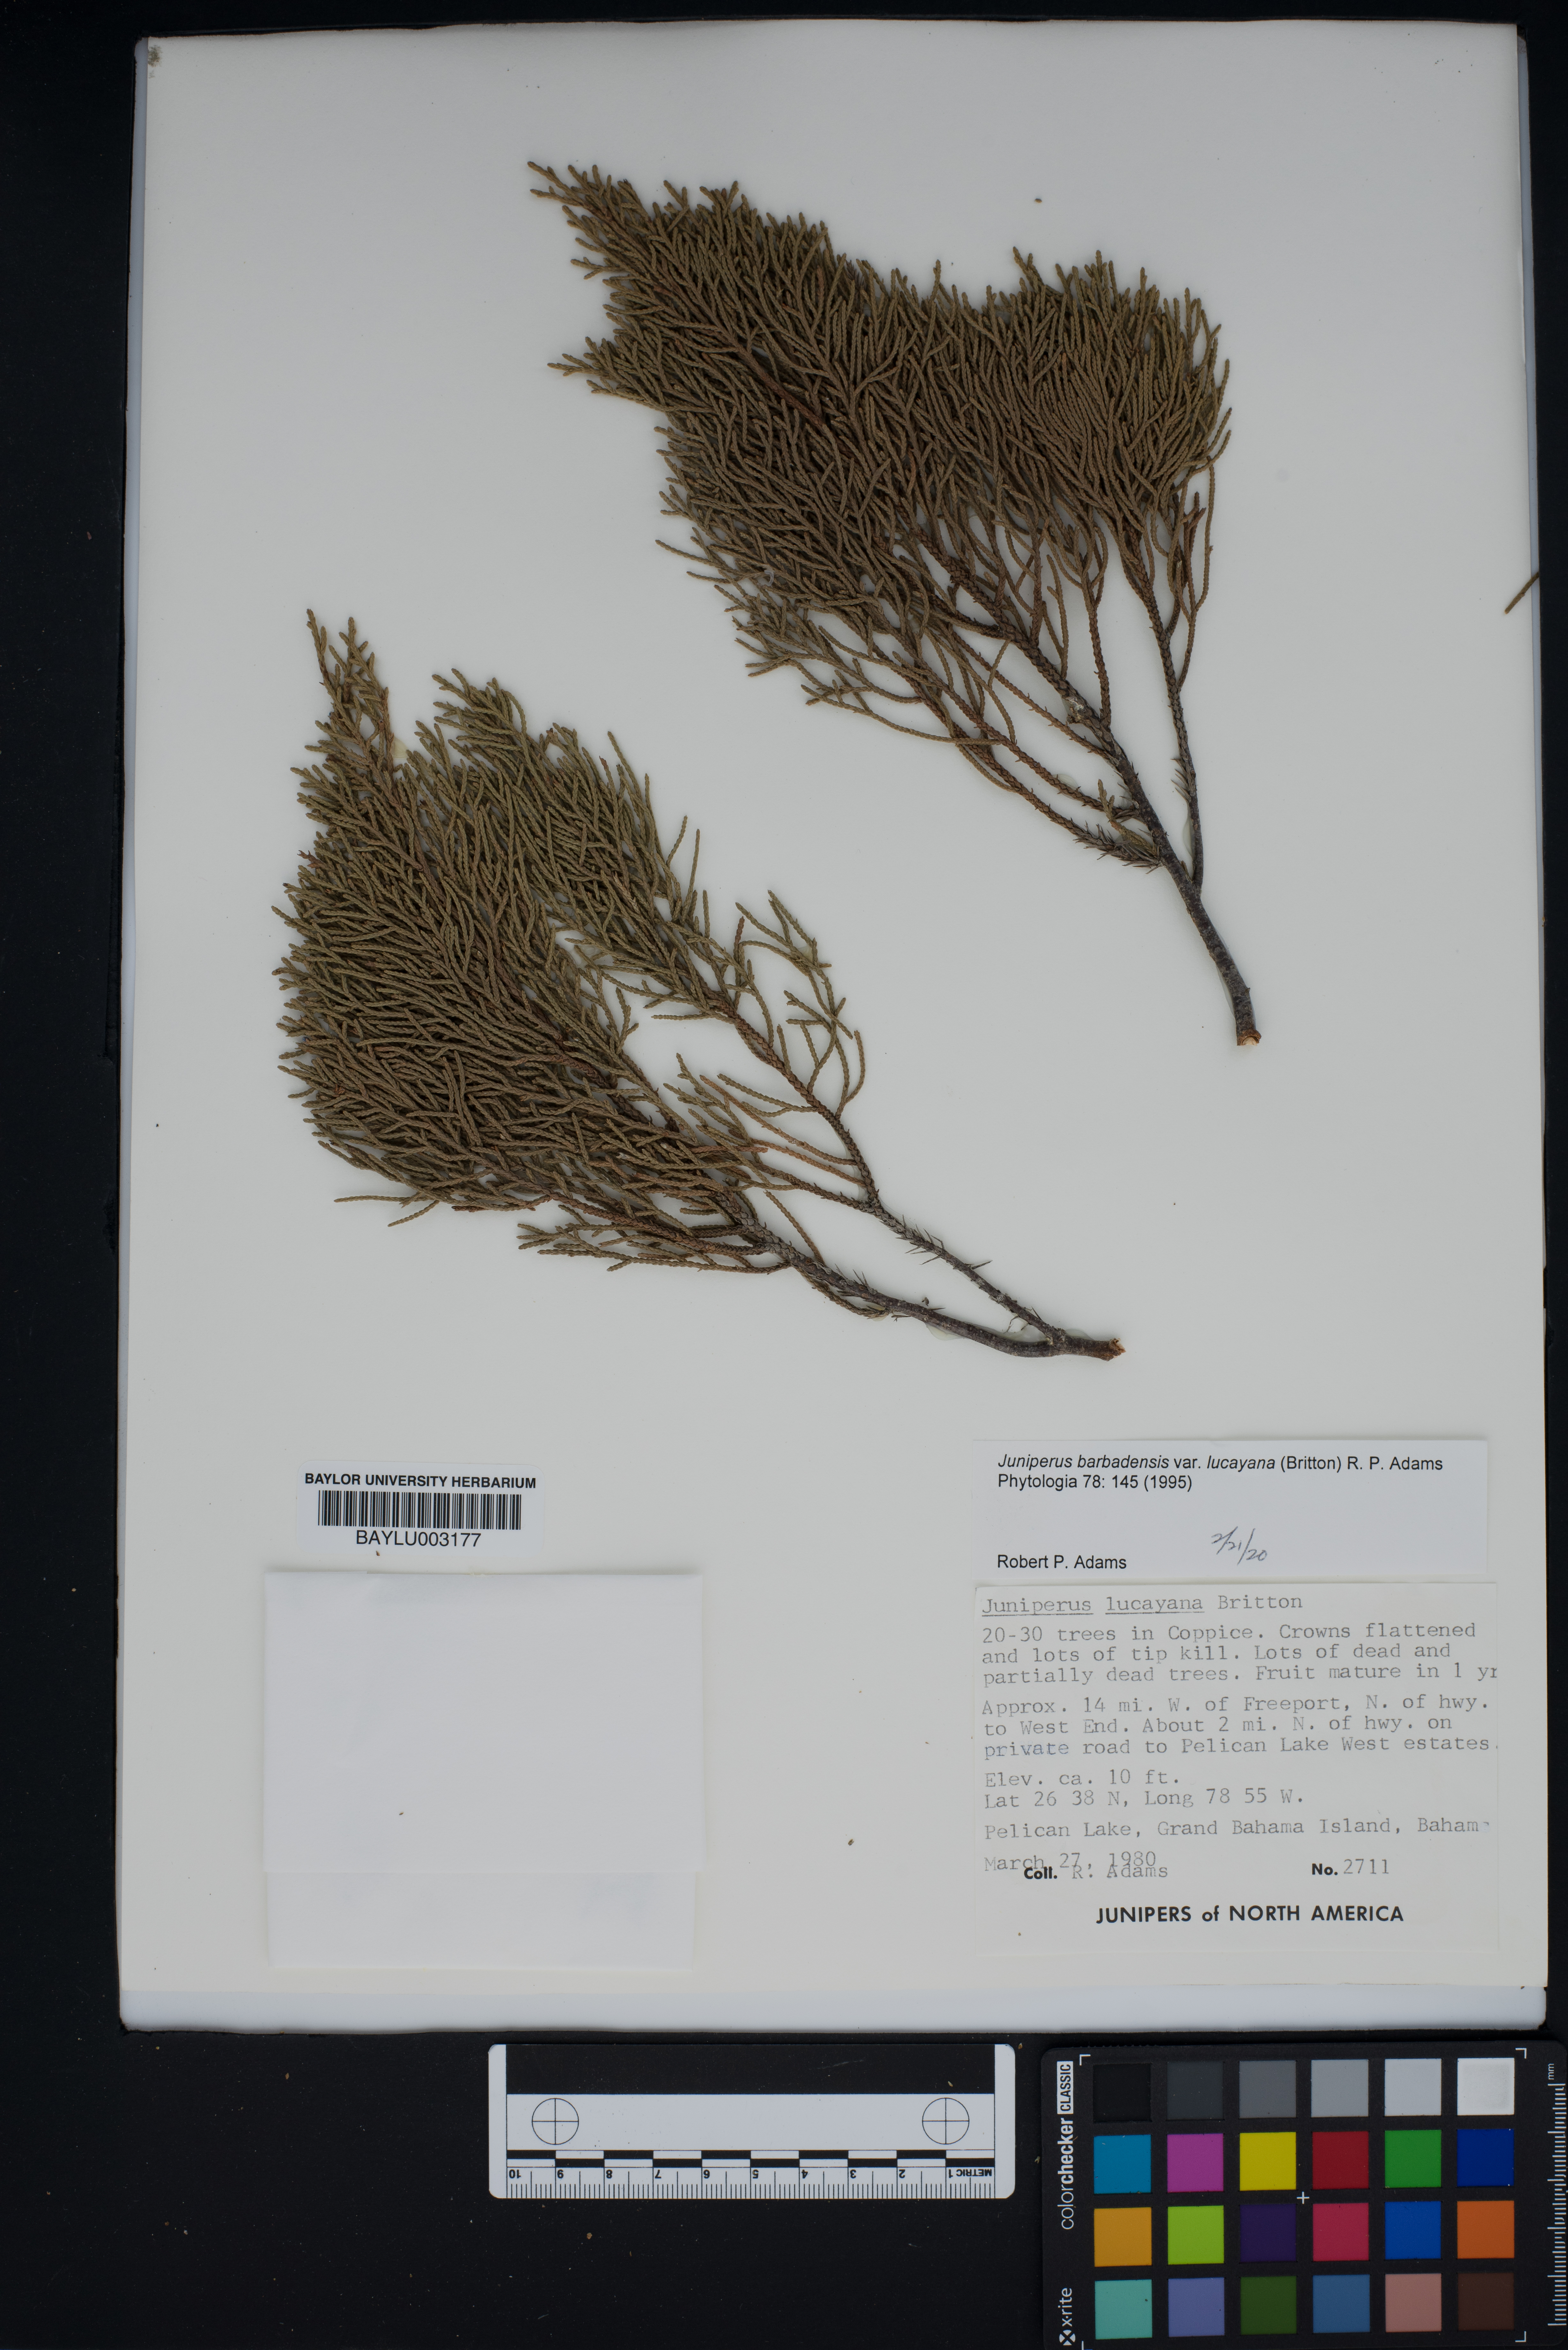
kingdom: Plantae
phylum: Tracheophyta
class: Pinopsida
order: Pinales
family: Cupressaceae
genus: Juniperus
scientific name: Juniperus barbadensis
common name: West indies juniper
